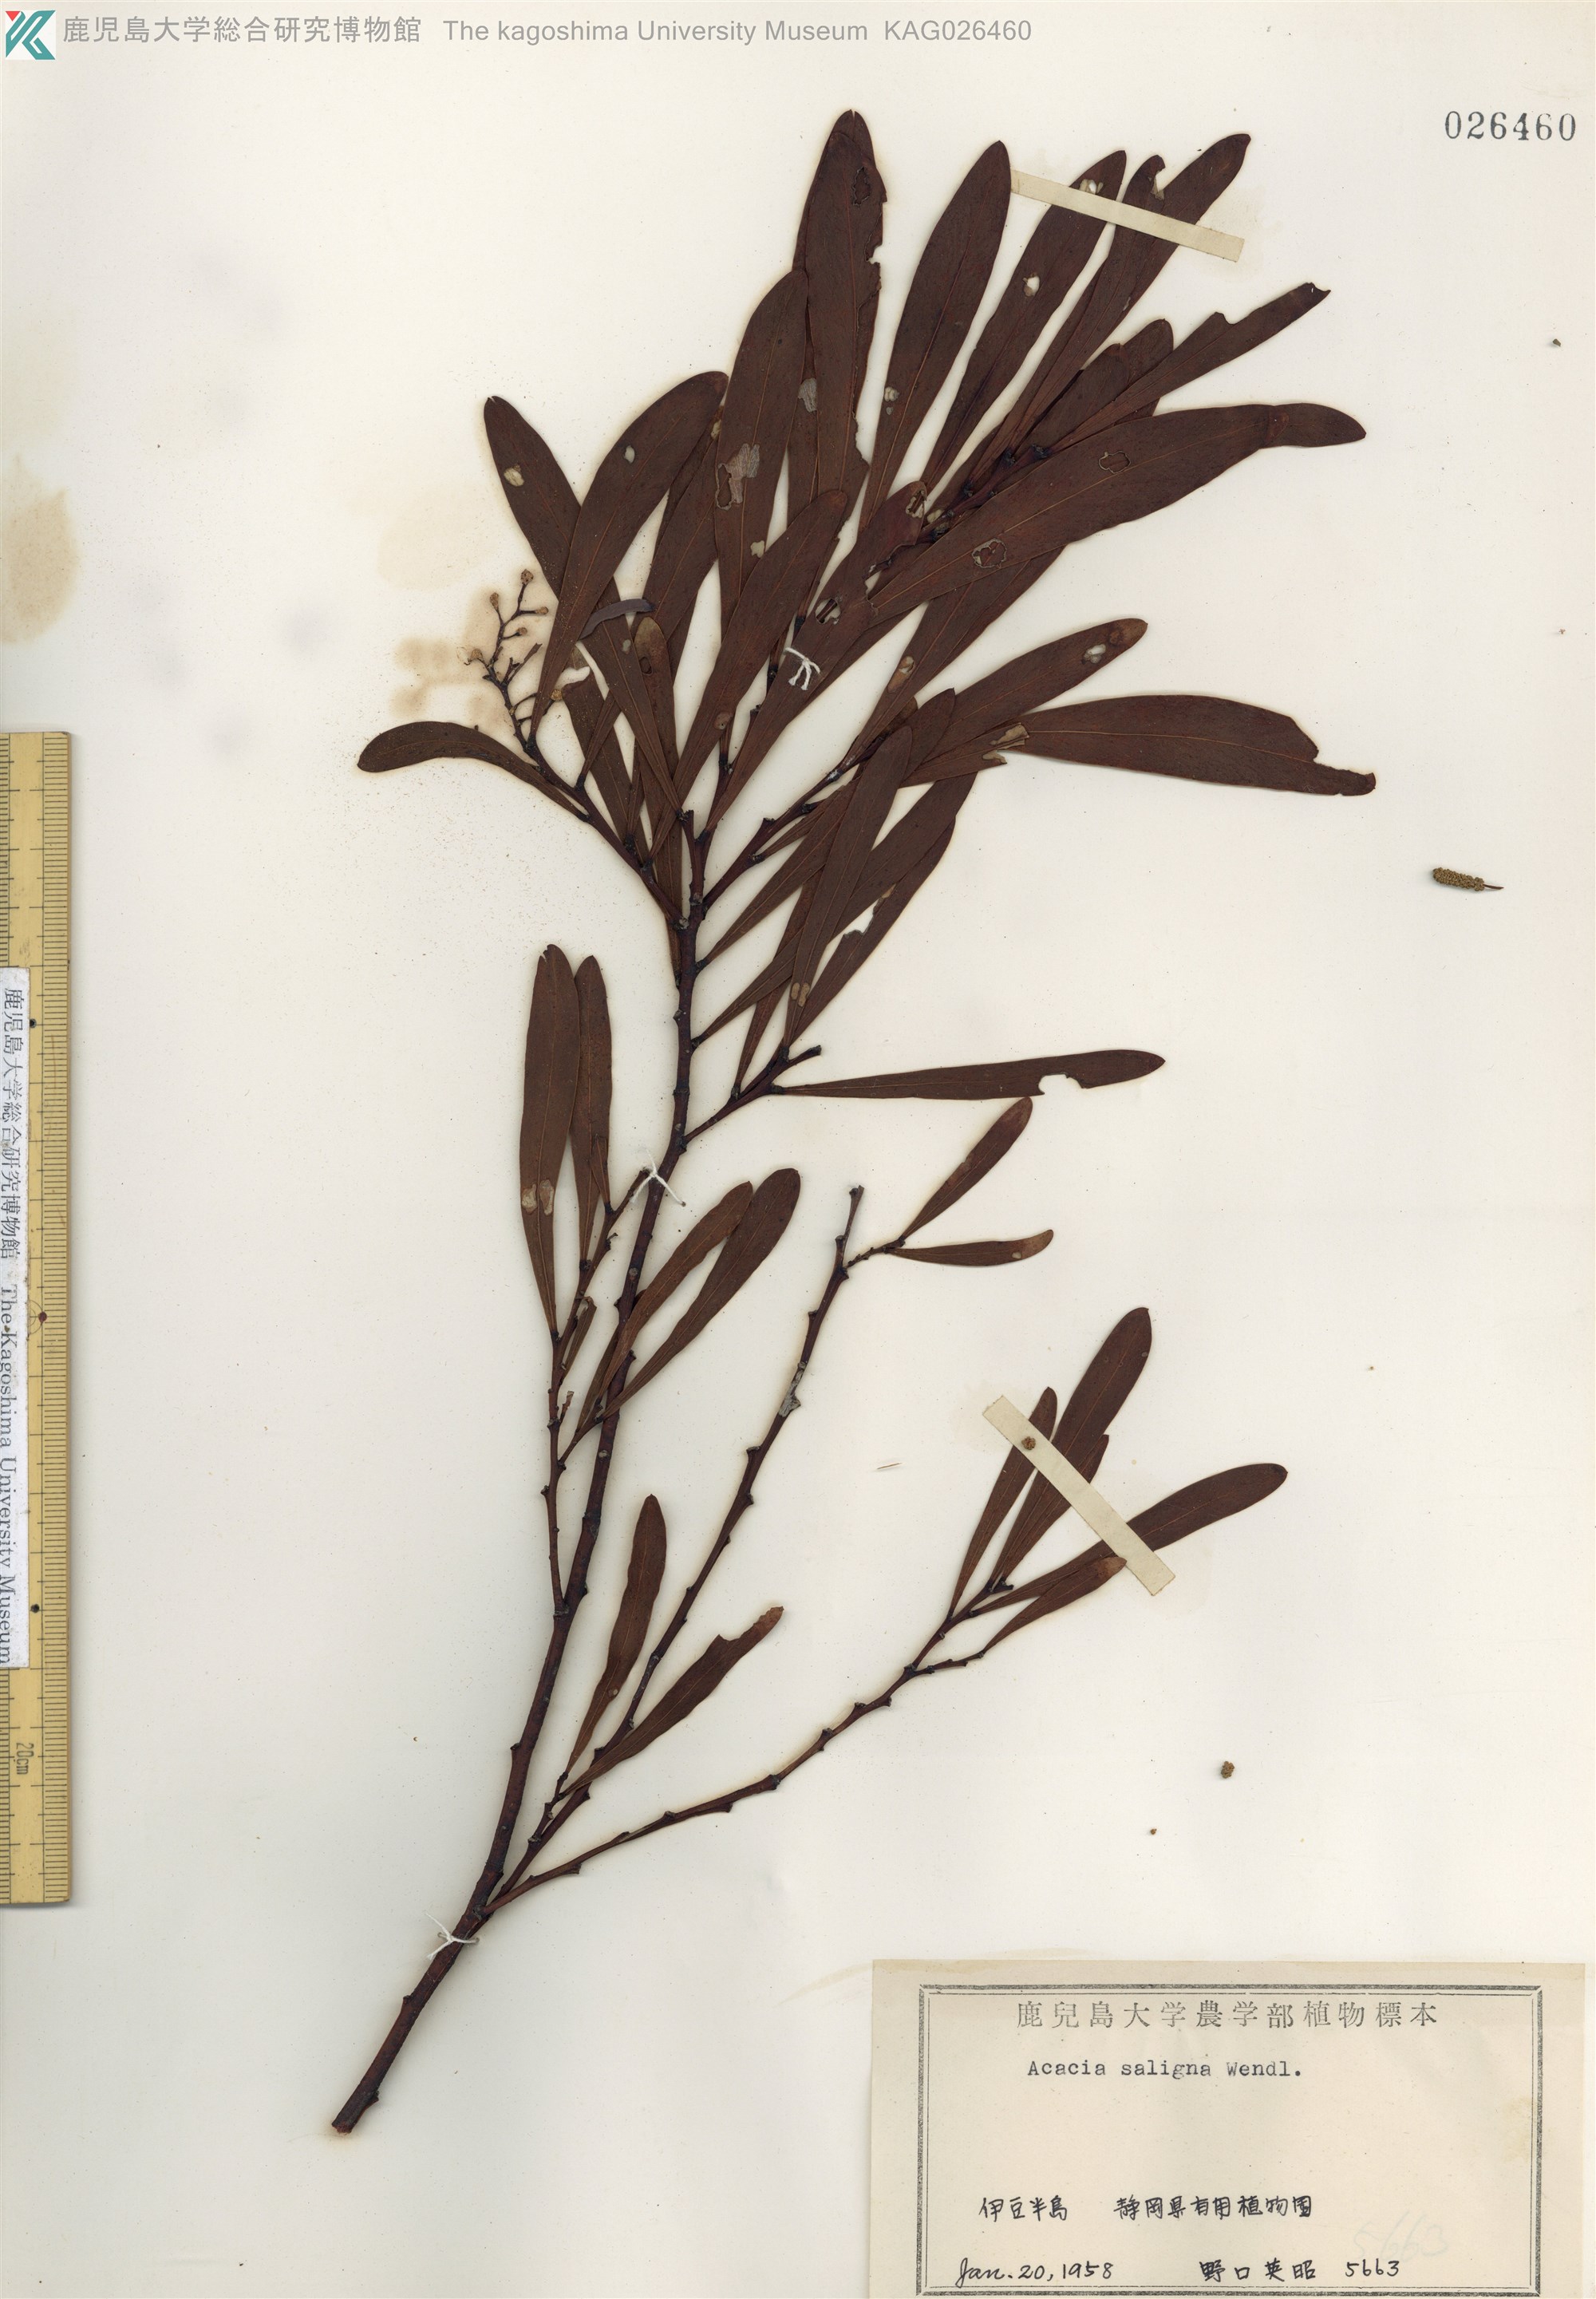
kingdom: Plantae
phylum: Tracheophyta
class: Magnoliopsida
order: Fabales
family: Fabaceae
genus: Acacia
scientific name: Acacia saligna
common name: Orange wattle
